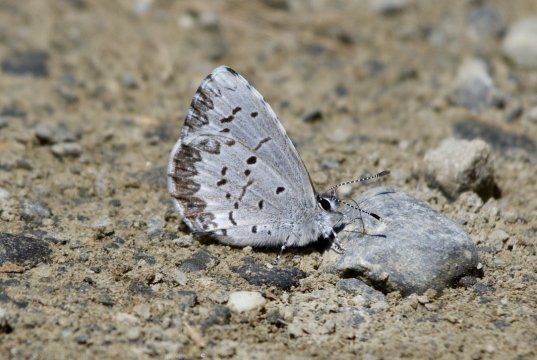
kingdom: Animalia
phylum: Arthropoda
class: Insecta
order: Lepidoptera
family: Lycaenidae
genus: Celastrina
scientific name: Celastrina ladon
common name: Spring Azure
